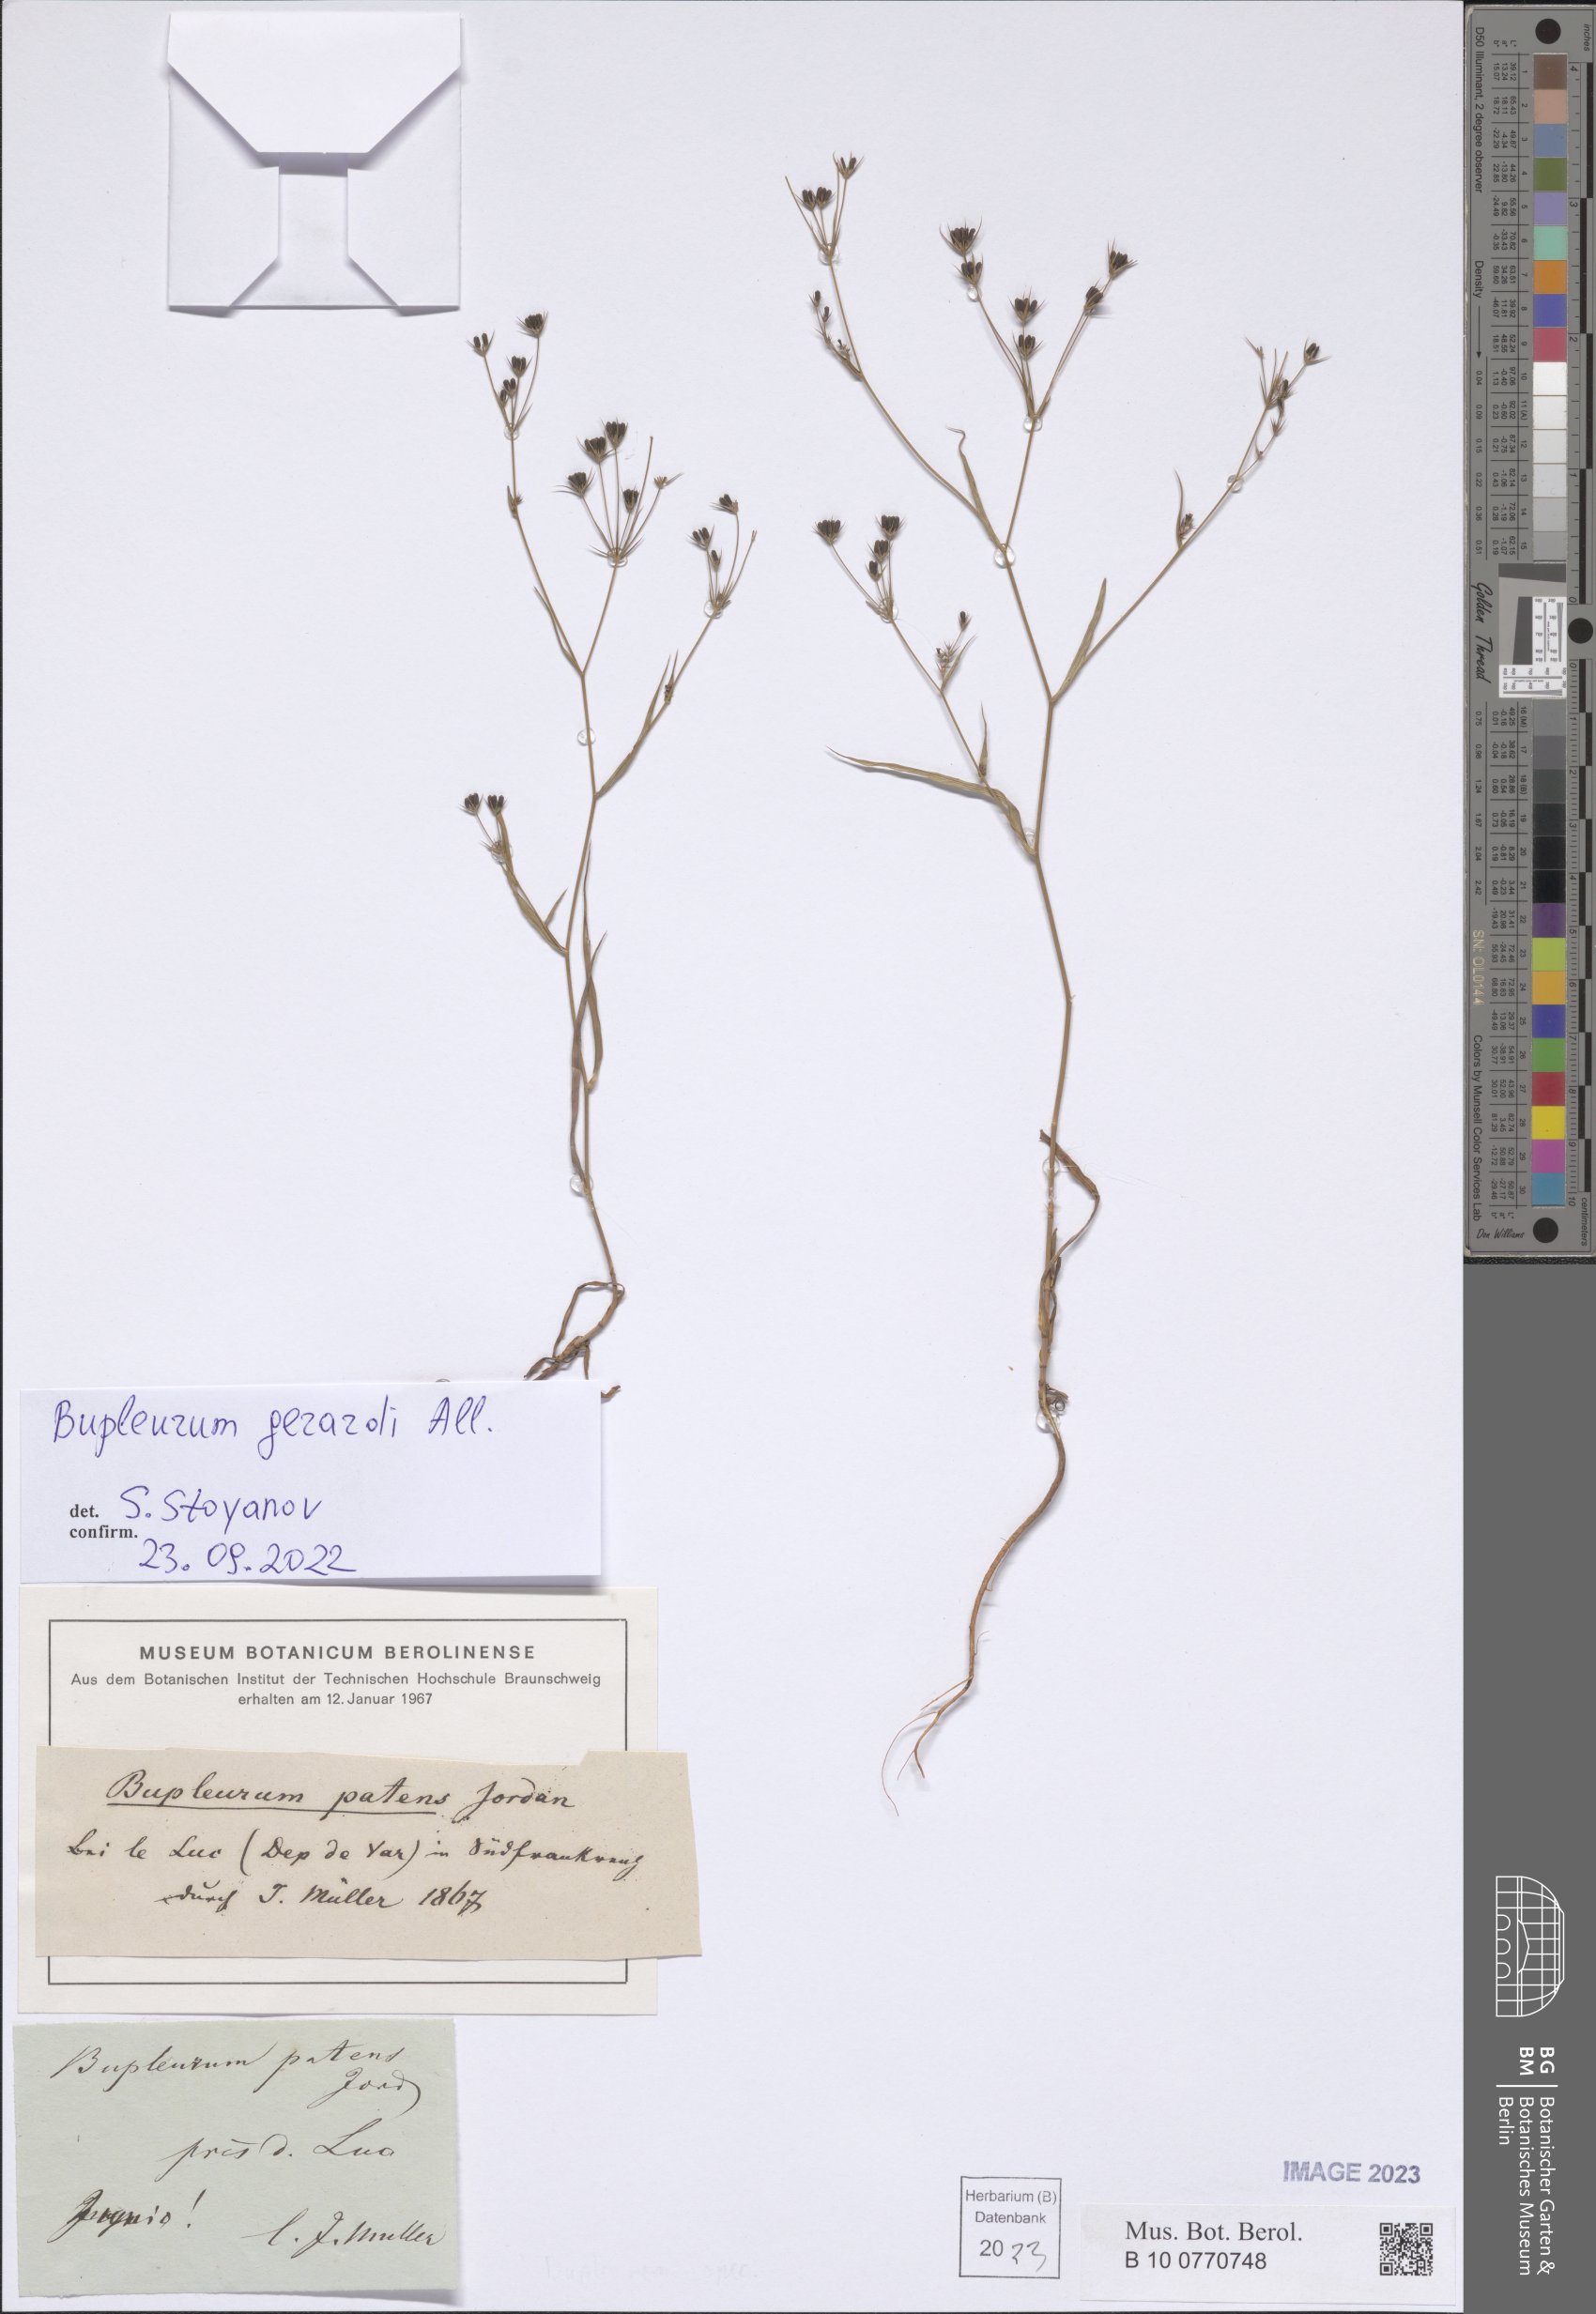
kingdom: Plantae
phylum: Tracheophyta
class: Magnoliopsida
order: Apiales
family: Apiaceae
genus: Bupleurum
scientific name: Bupleurum gerardi
